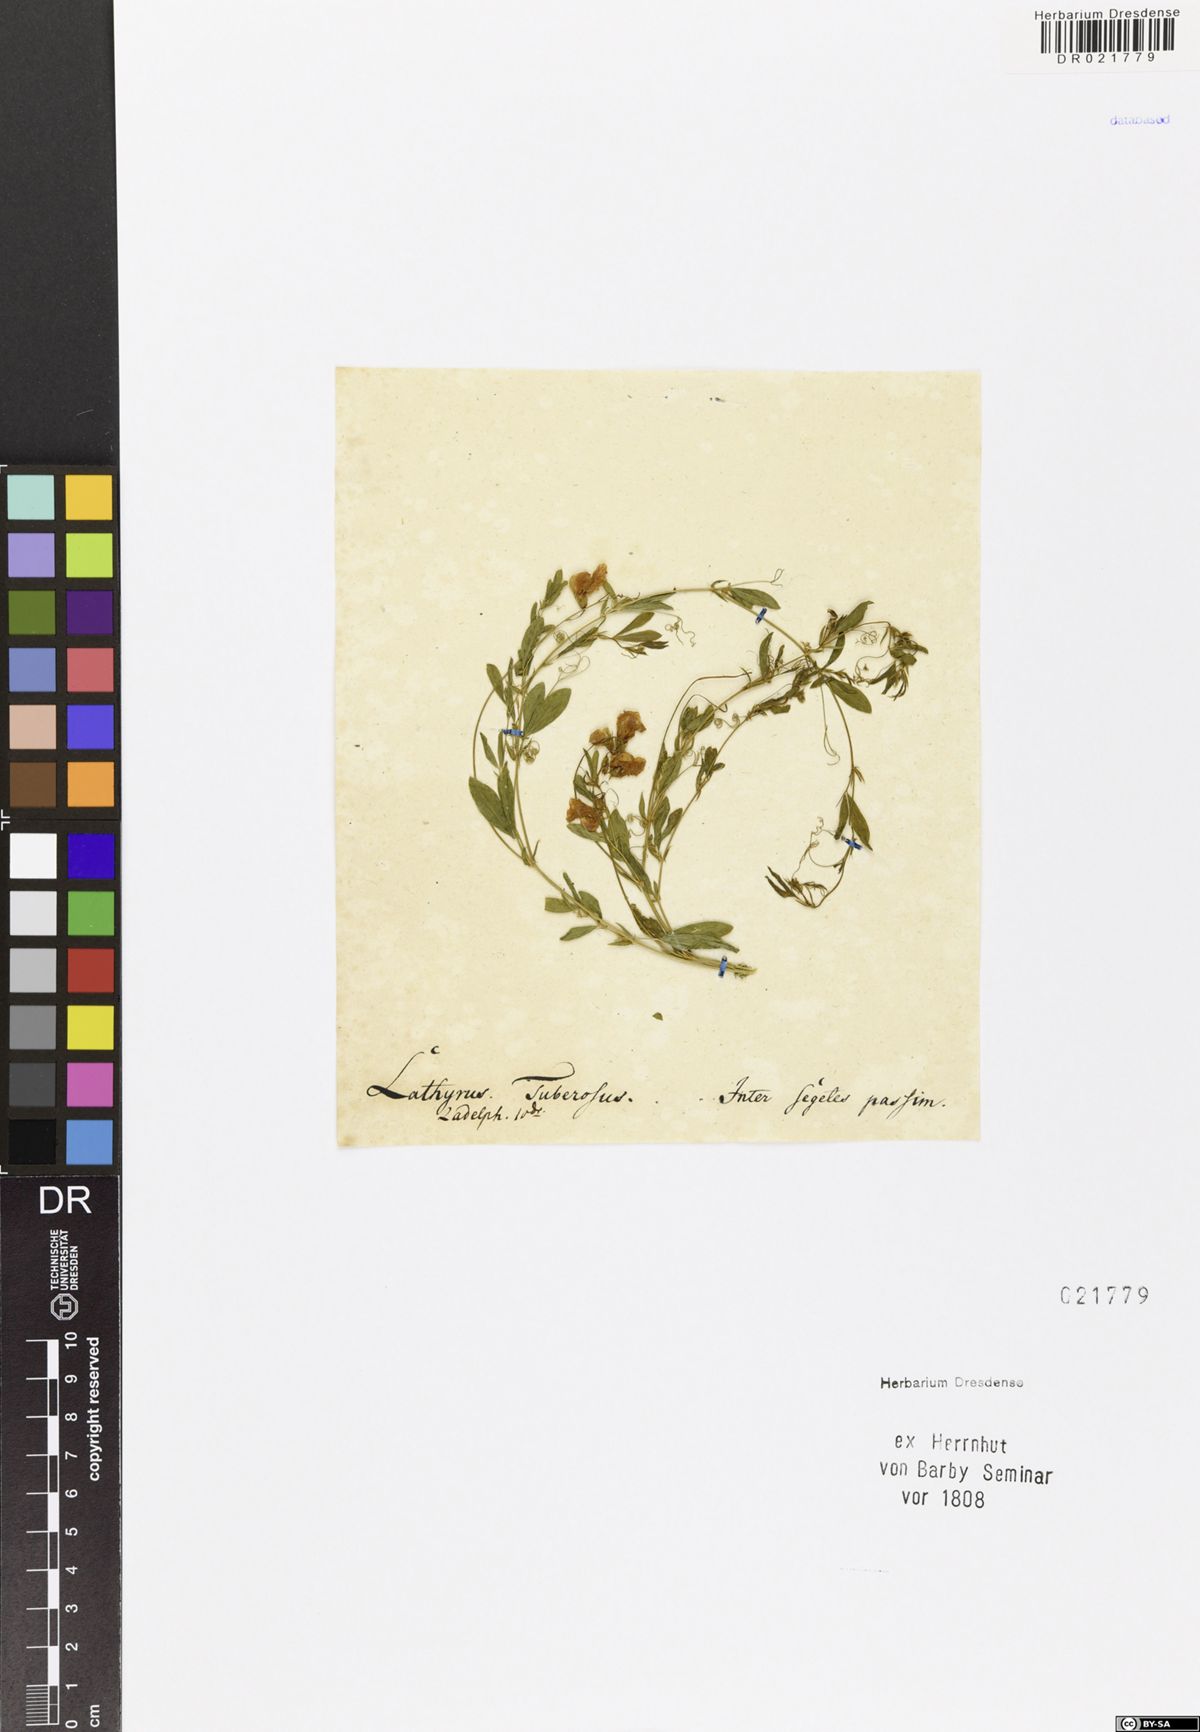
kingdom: Plantae
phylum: Tracheophyta
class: Magnoliopsida
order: Fabales
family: Fabaceae
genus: Lathyrus
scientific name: Lathyrus tuberosus
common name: Tuberous pea
